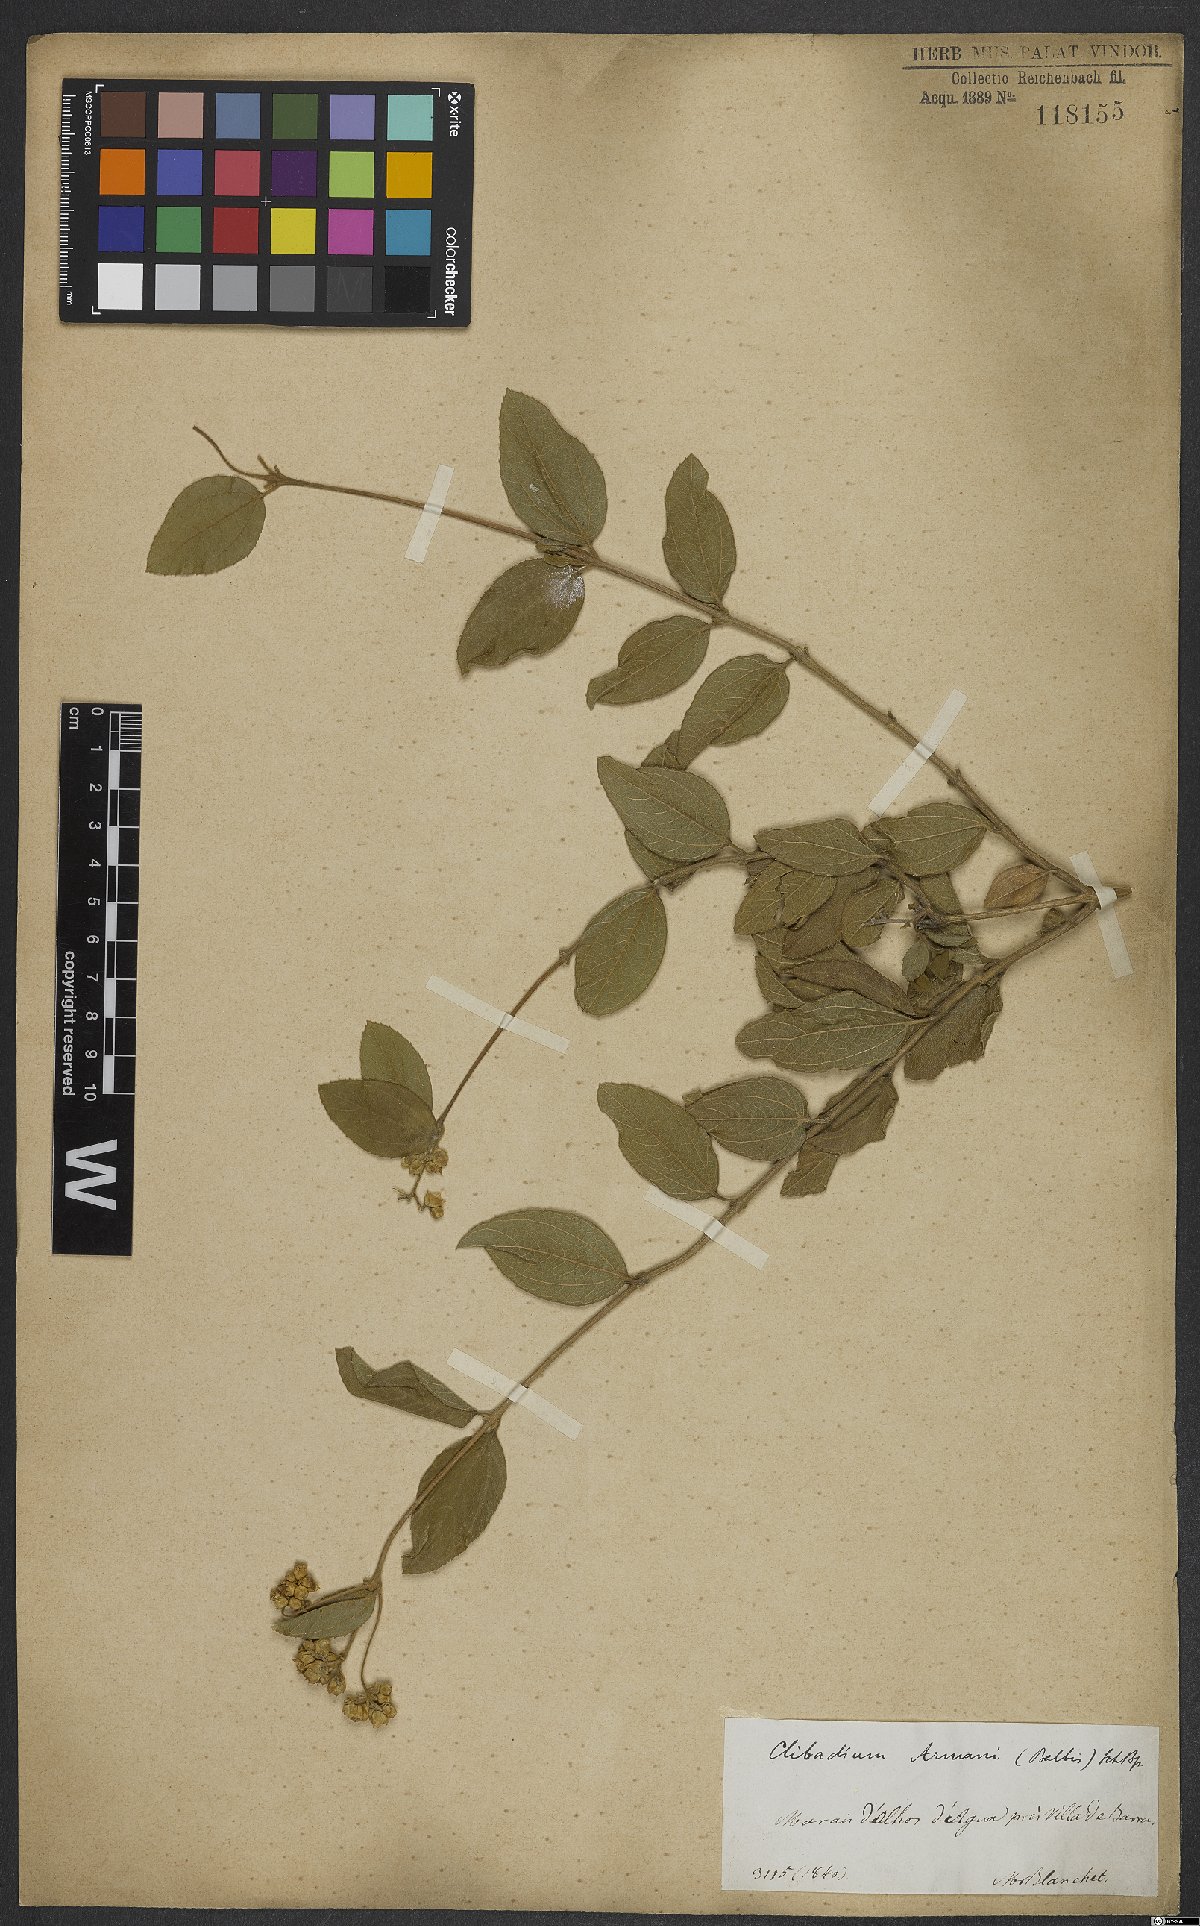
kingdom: Plantae
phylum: Tracheophyta
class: Magnoliopsida
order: Asterales
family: Asteraceae
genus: Clibadium
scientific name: Clibadium armanii
